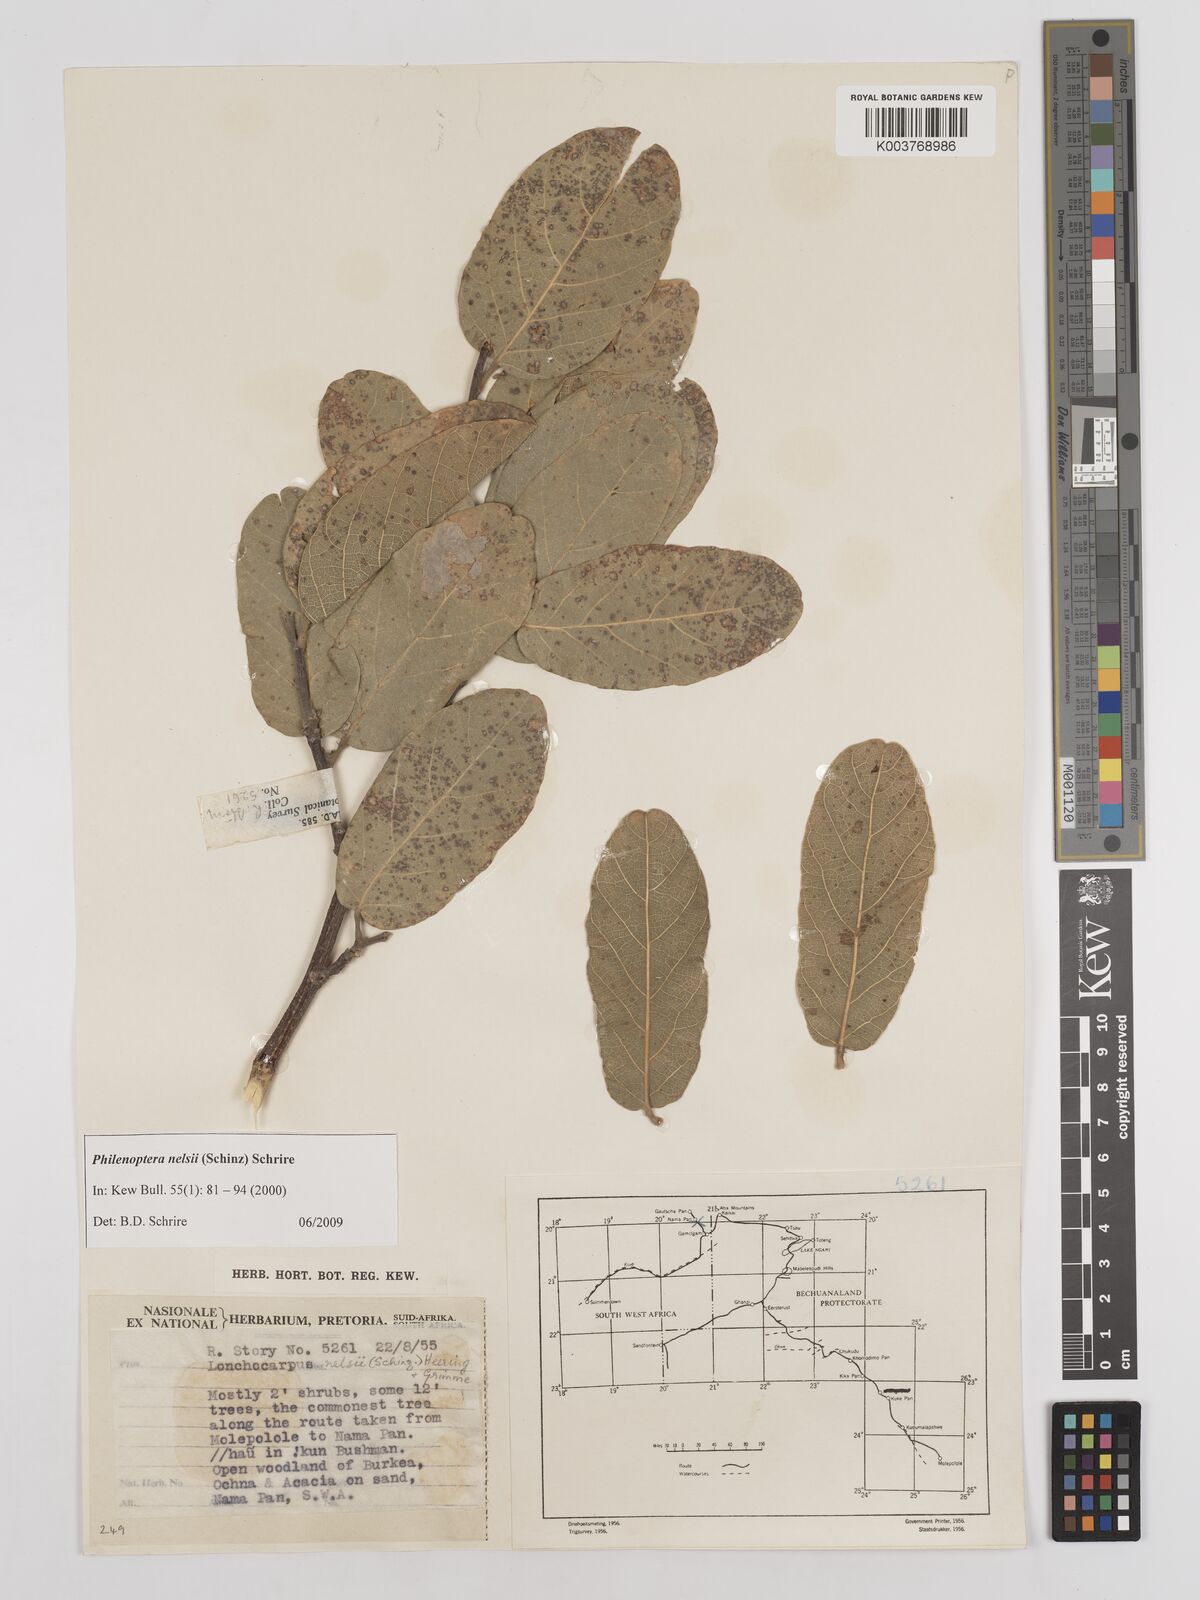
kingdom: Plantae
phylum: Tracheophyta
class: Magnoliopsida
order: Fabales
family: Fabaceae
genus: Philenoptera
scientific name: Philenoptera nelsii
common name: Kalahari apple-leaf
